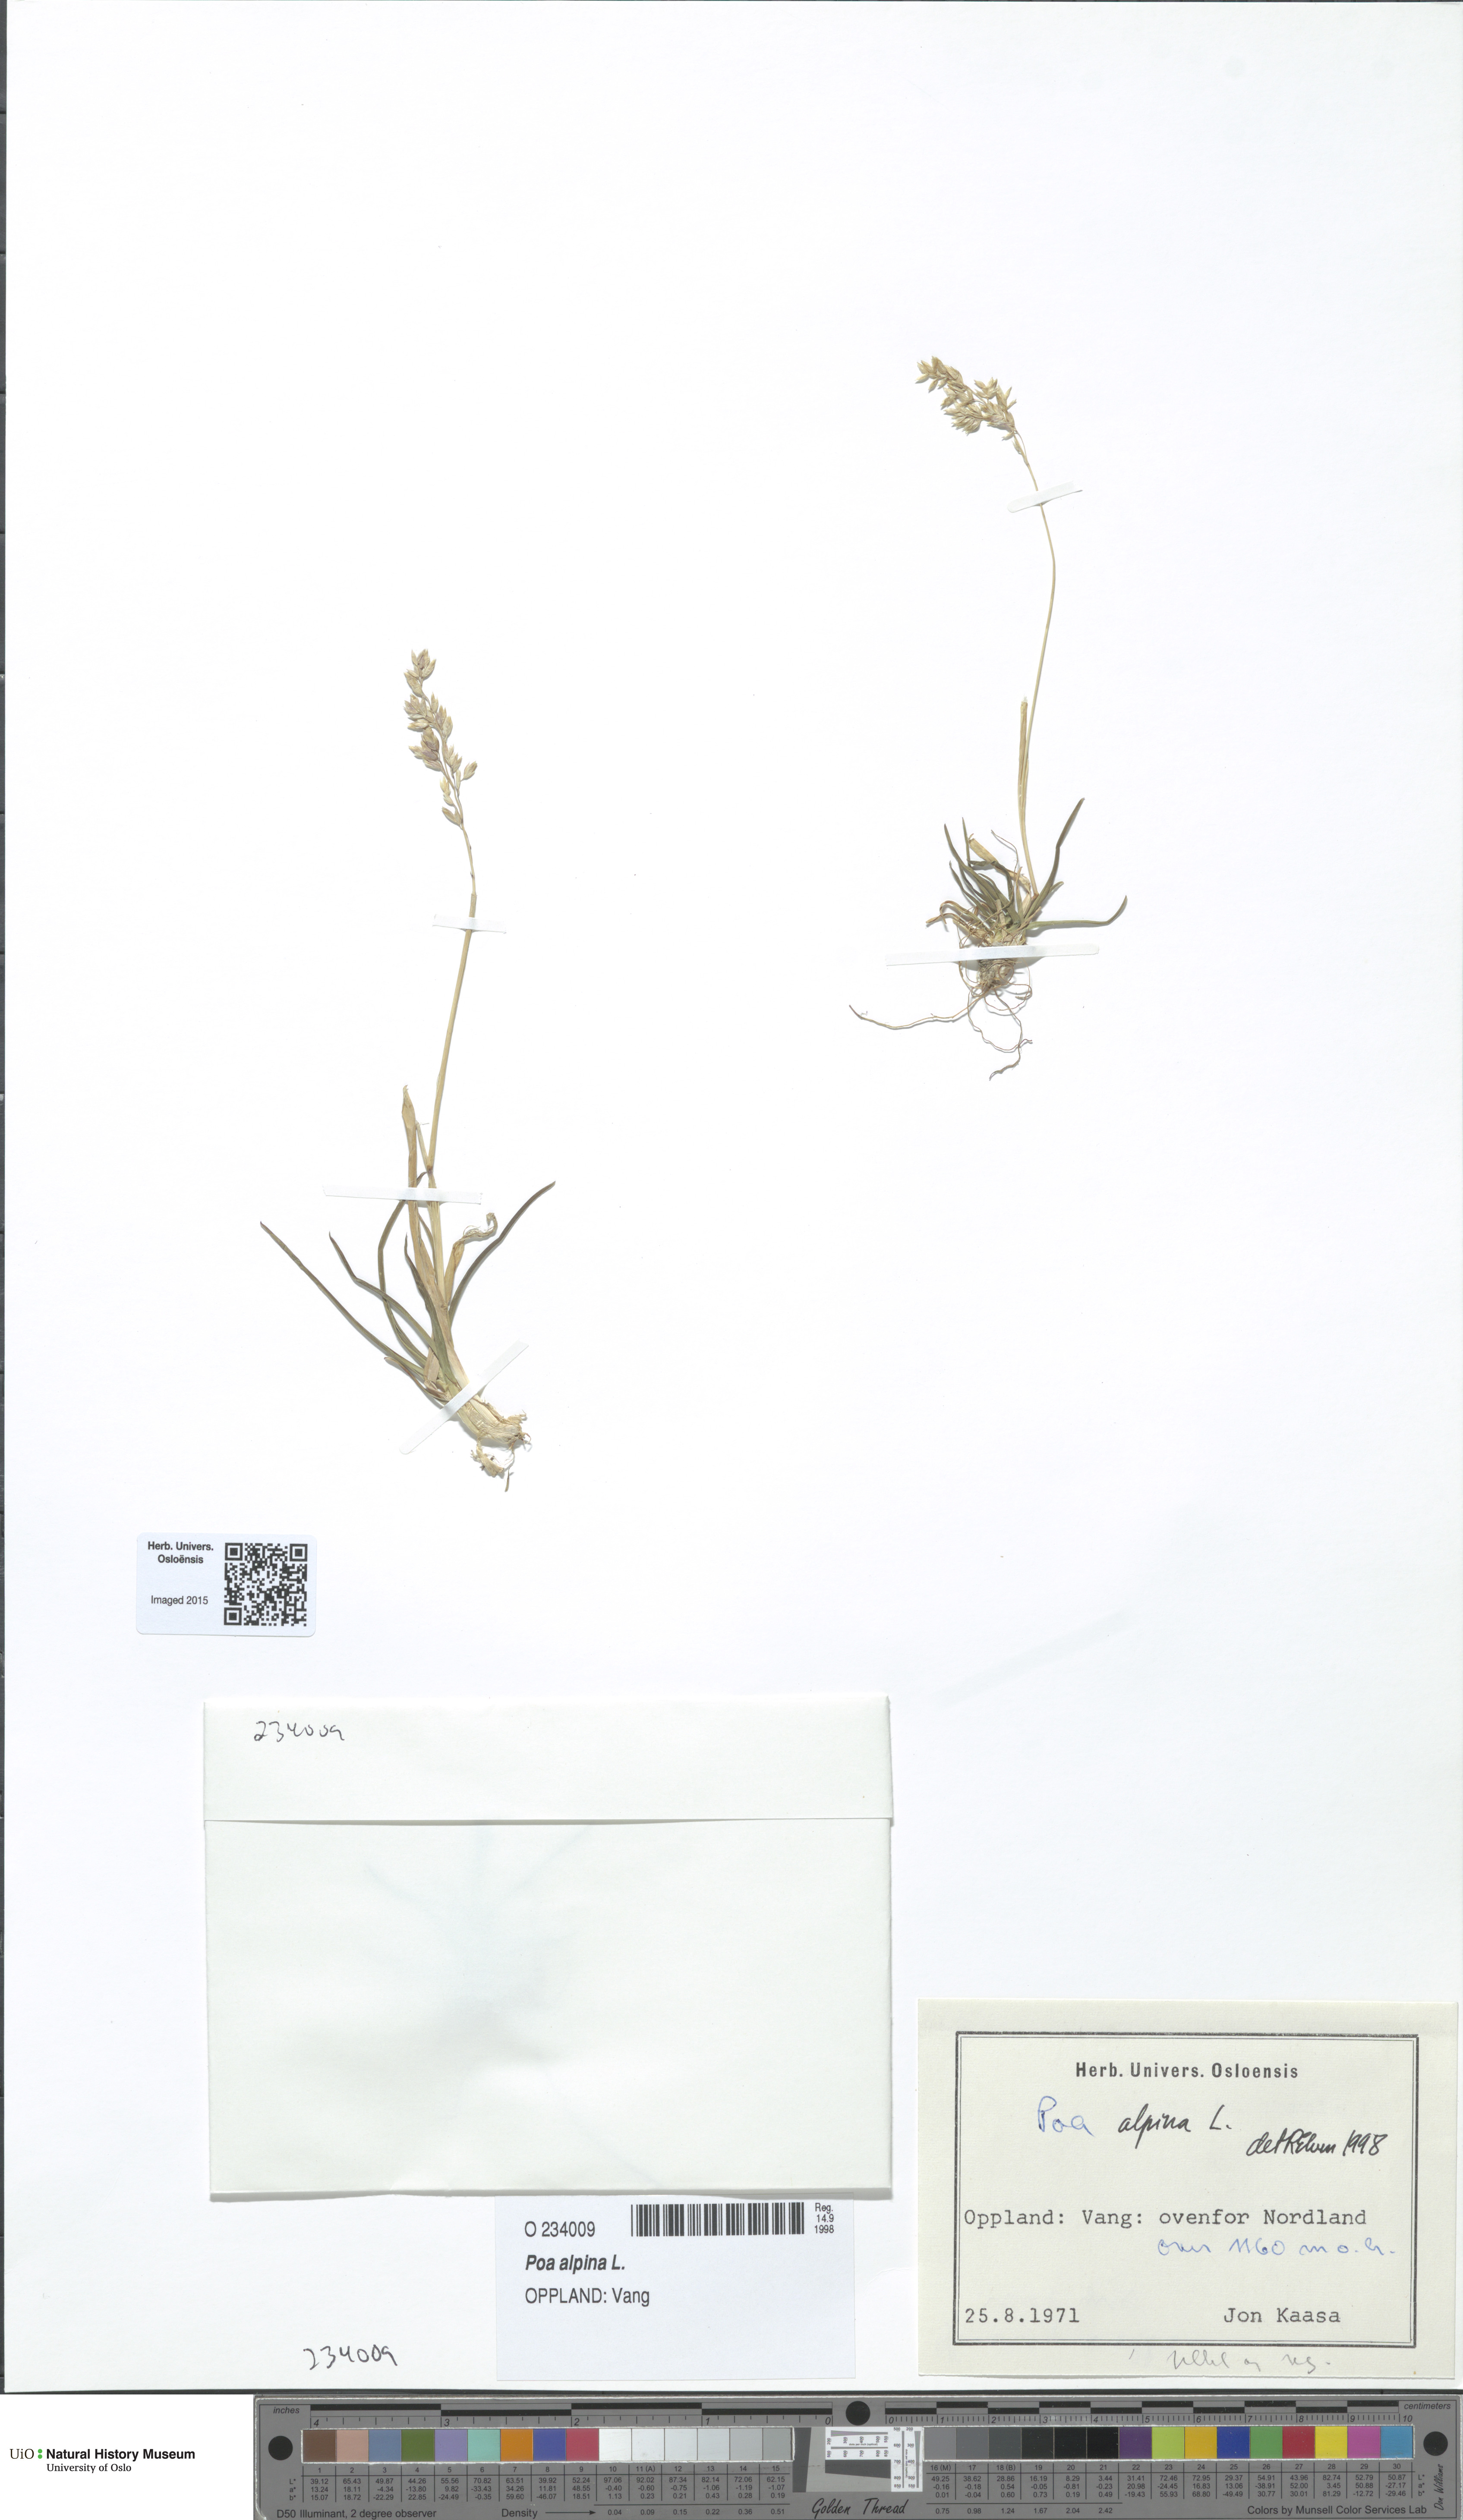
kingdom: Plantae
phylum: Tracheophyta
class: Liliopsida
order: Poales
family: Poaceae
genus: Poa
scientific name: Poa alpina
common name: Alpine bluegrass
